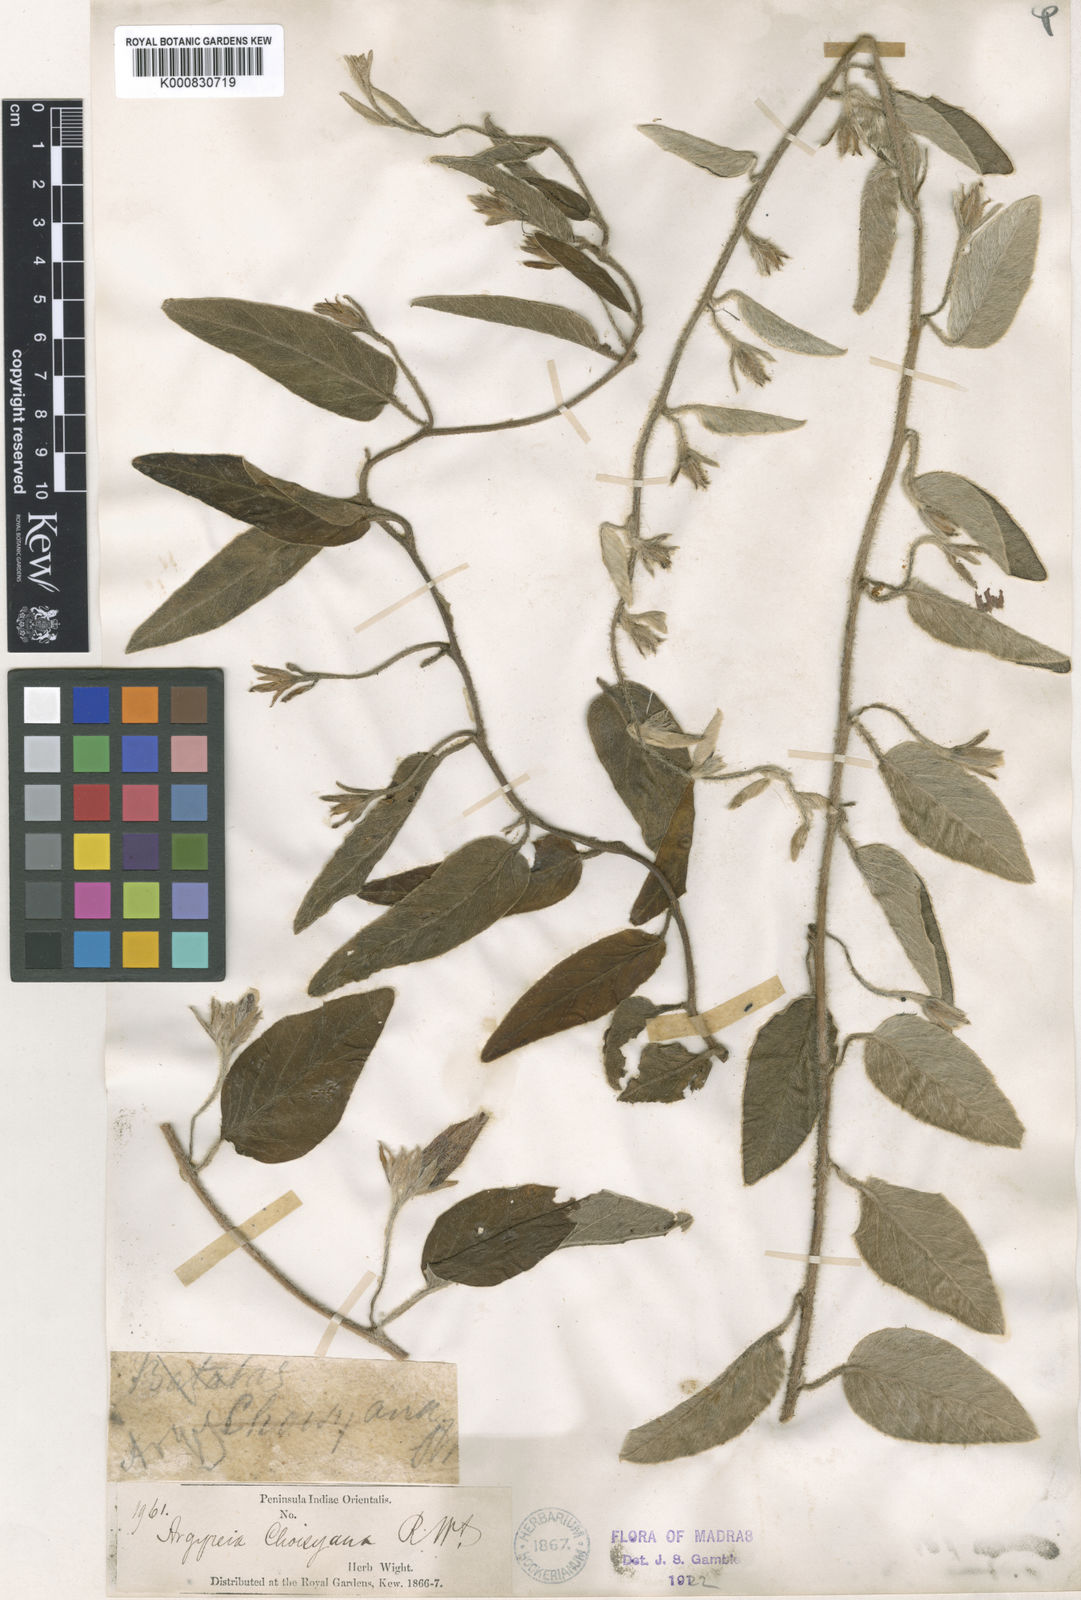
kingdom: Plantae
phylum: Tracheophyta
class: Magnoliopsida
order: Solanales
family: Convolvulaceae
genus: Argyreia
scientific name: Argyreia
